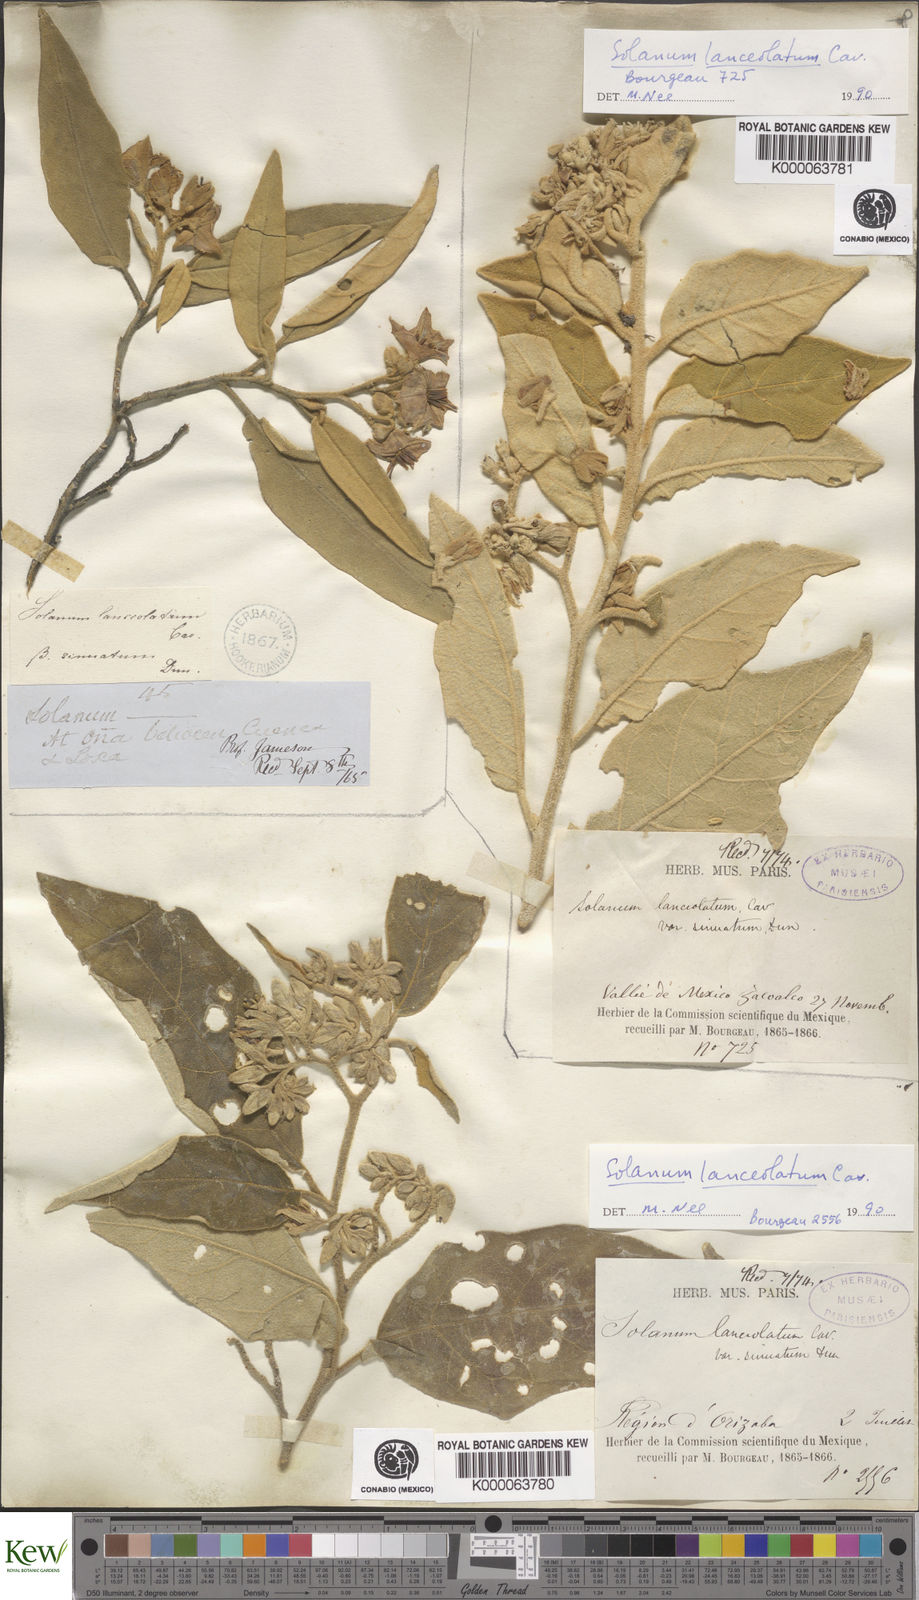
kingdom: Plantae
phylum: Tracheophyta
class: Magnoliopsida
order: Solanales
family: Solanaceae
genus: Solanum
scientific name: Solanum lanceolatum
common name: Orangeberry nightshade
